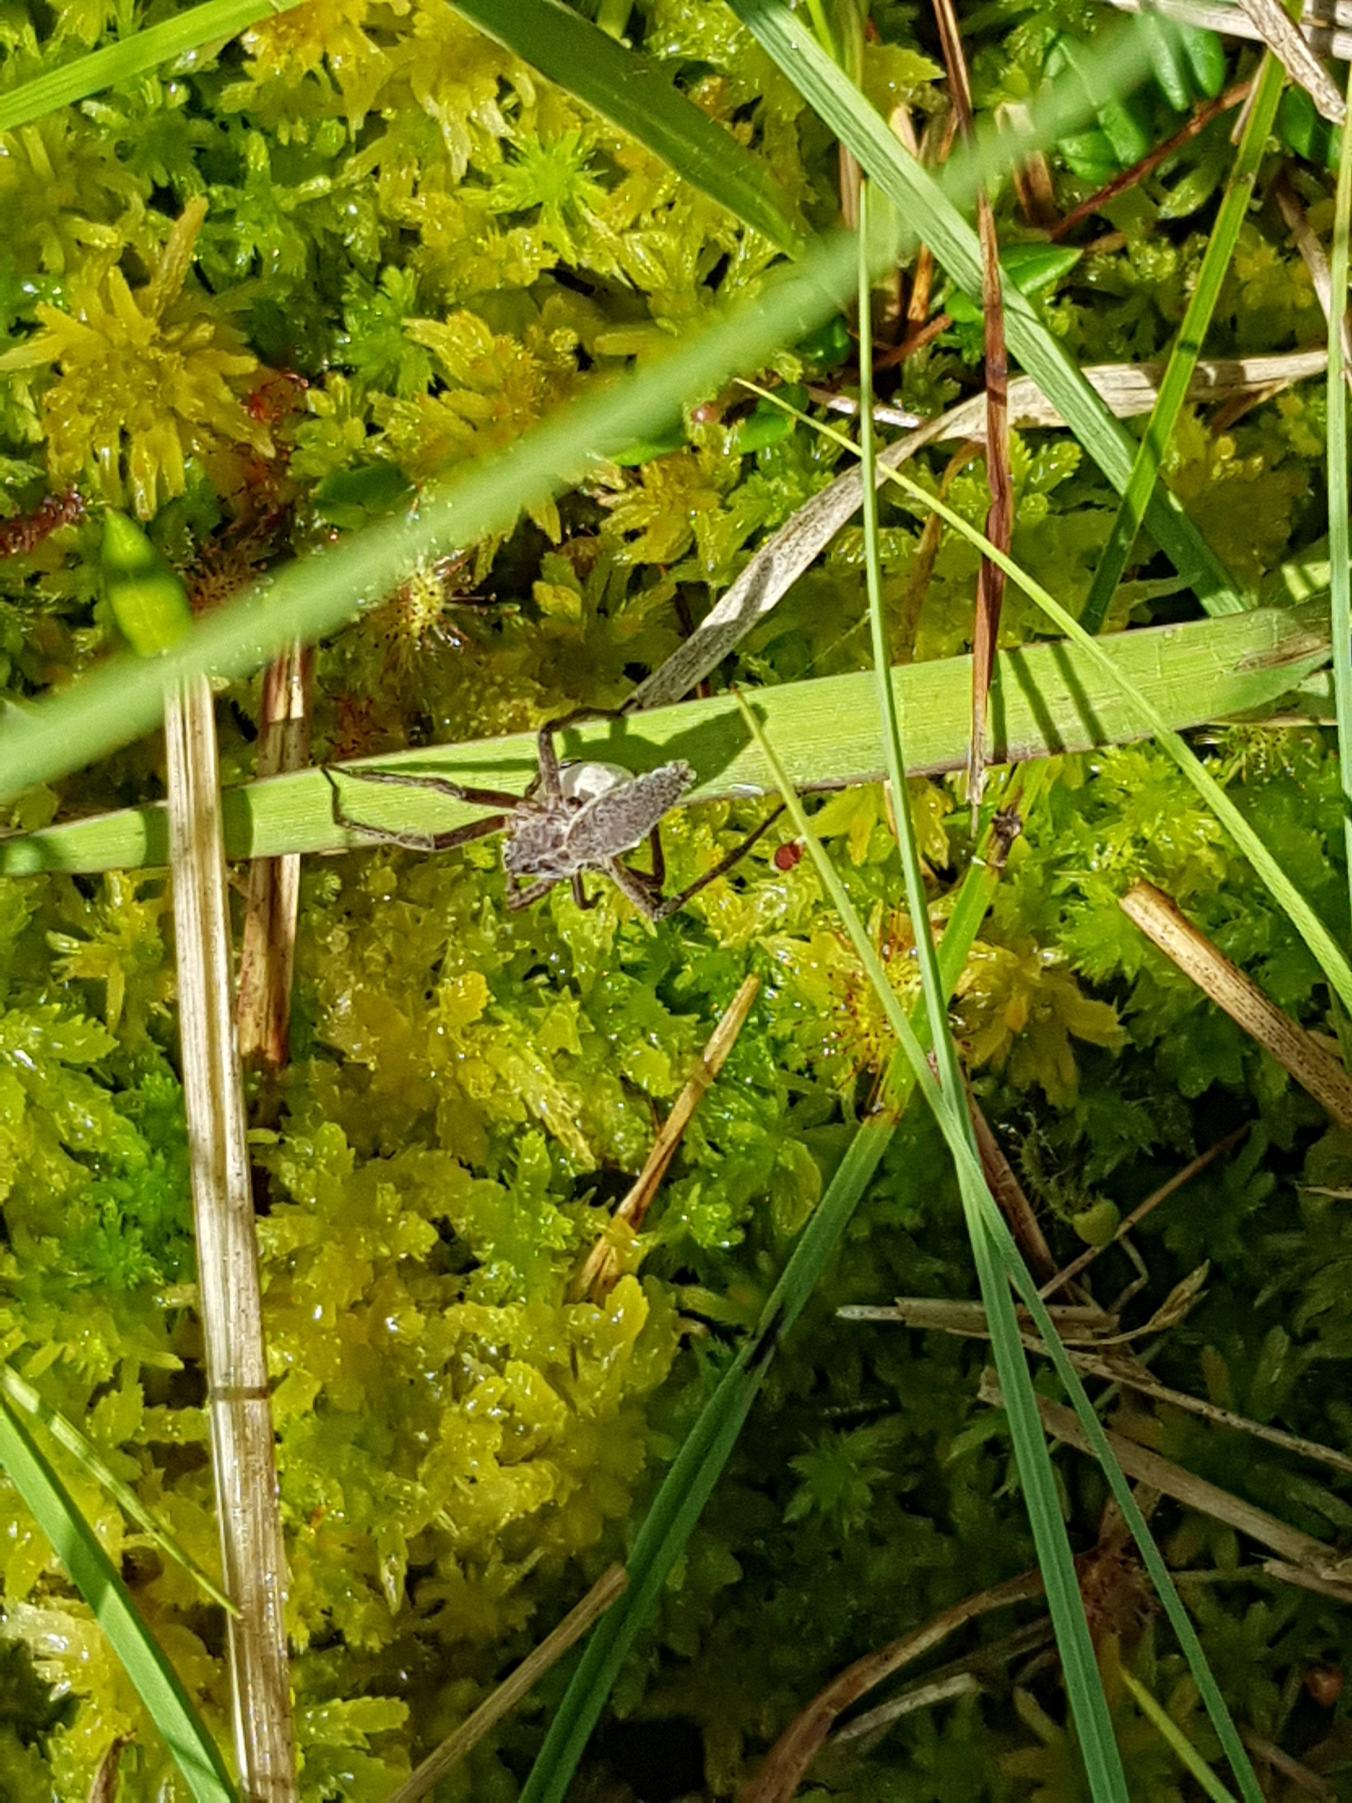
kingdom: Animalia
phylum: Arthropoda
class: Arachnida
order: Araneae
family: Pisauridae
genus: Pisaura
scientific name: Pisaura mirabilis
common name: Almindelig rovedderkop
